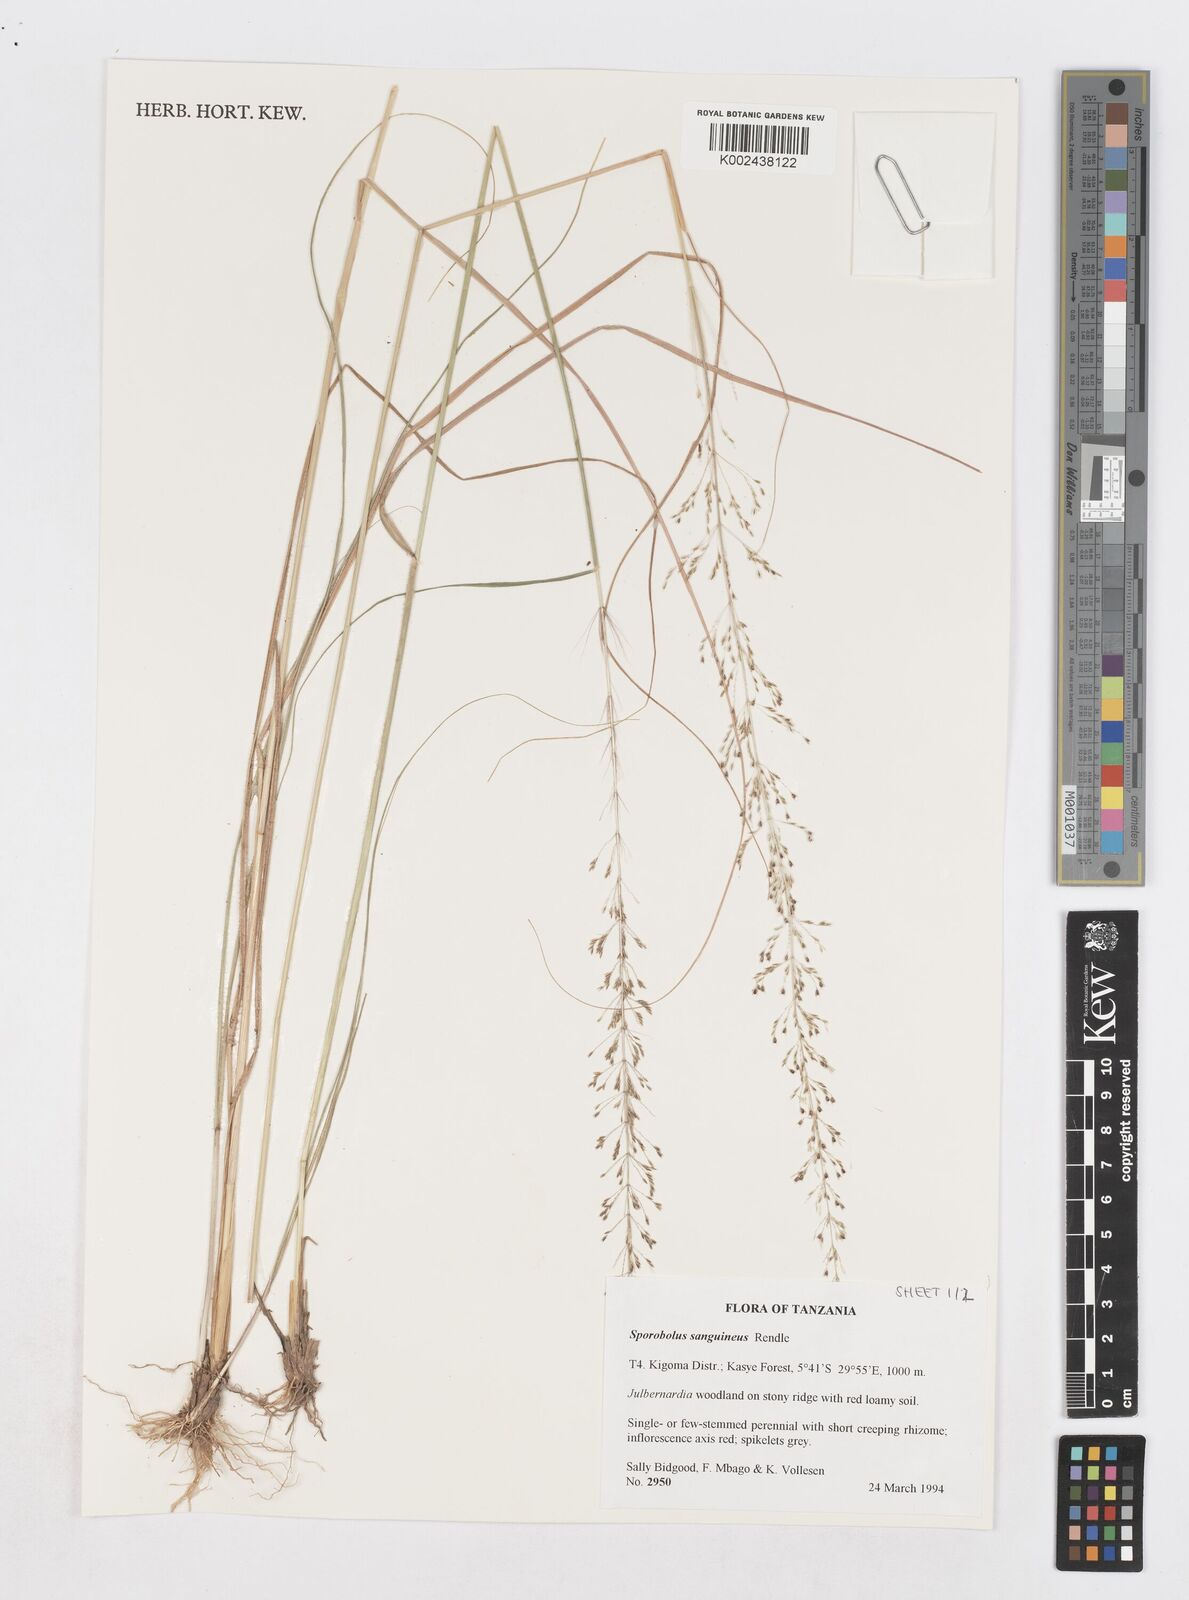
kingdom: Plantae
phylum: Tracheophyta
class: Liliopsida
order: Poales
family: Poaceae
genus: Sporobolus
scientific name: Sporobolus sanguineus
